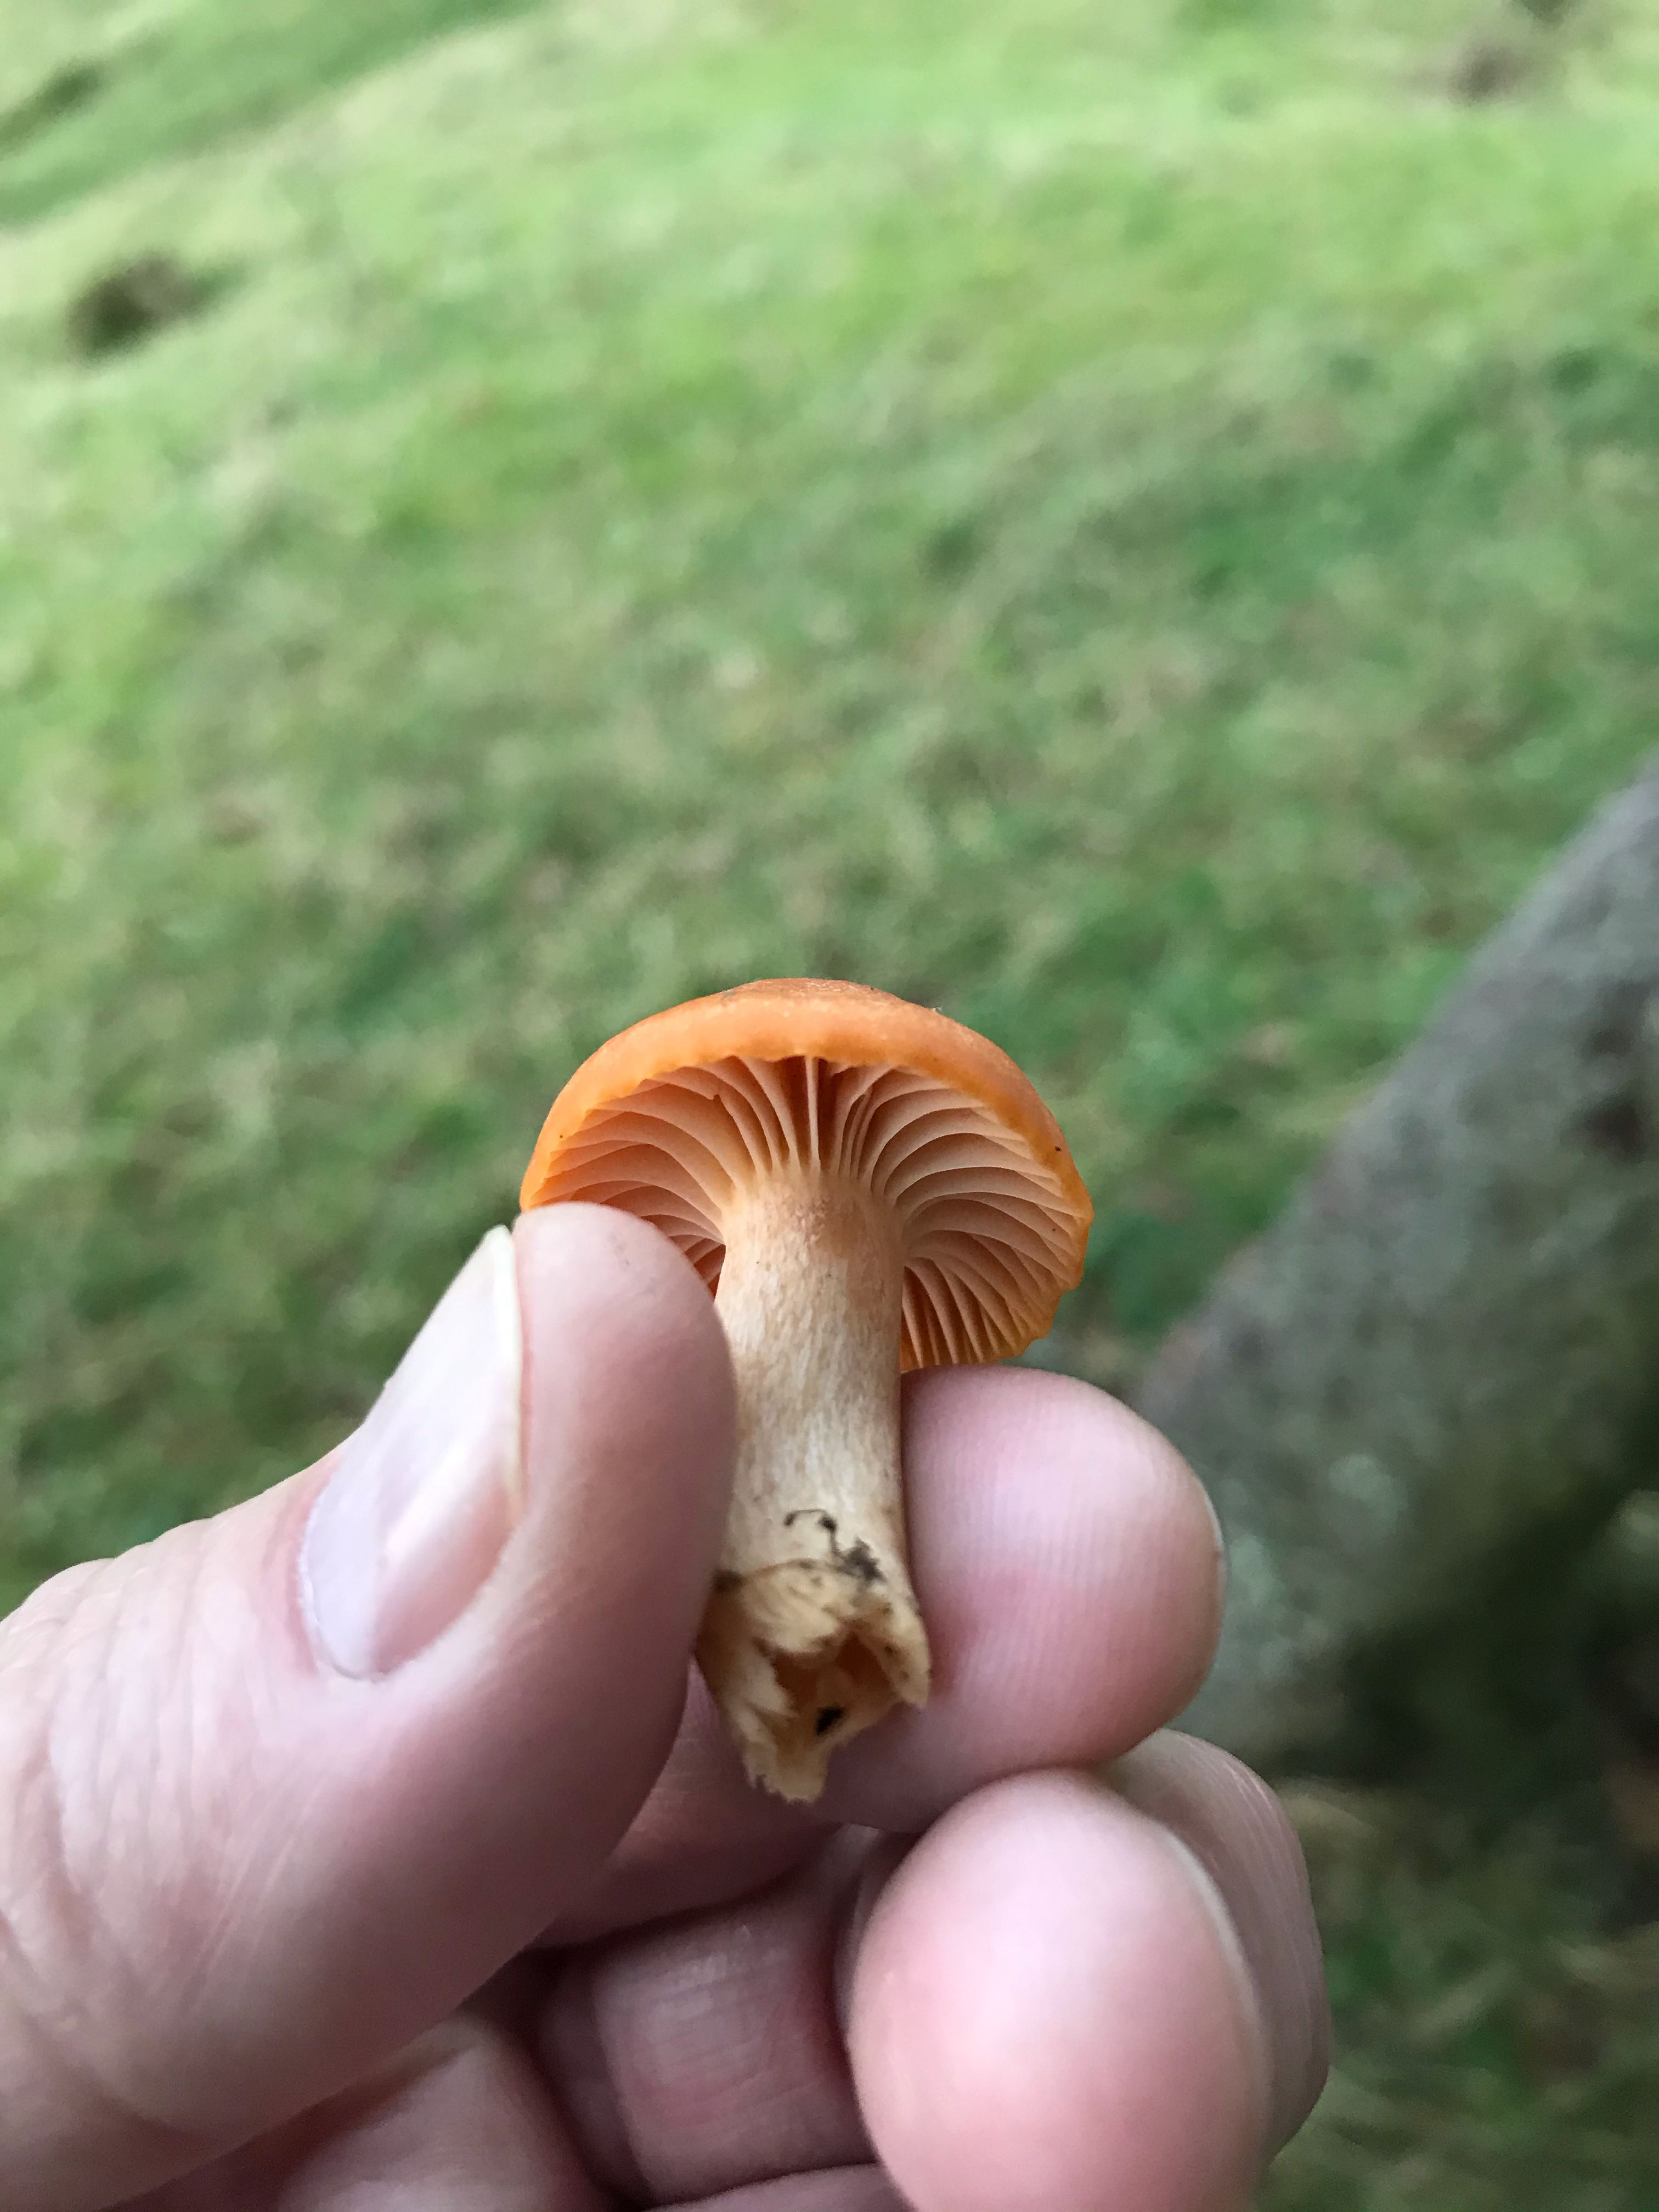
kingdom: Fungi
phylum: Basidiomycota
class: Agaricomycetes
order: Agaricales
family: Hygrophoraceae
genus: Cuphophyllus
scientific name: Cuphophyllus pratensis
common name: eng-vokshat
